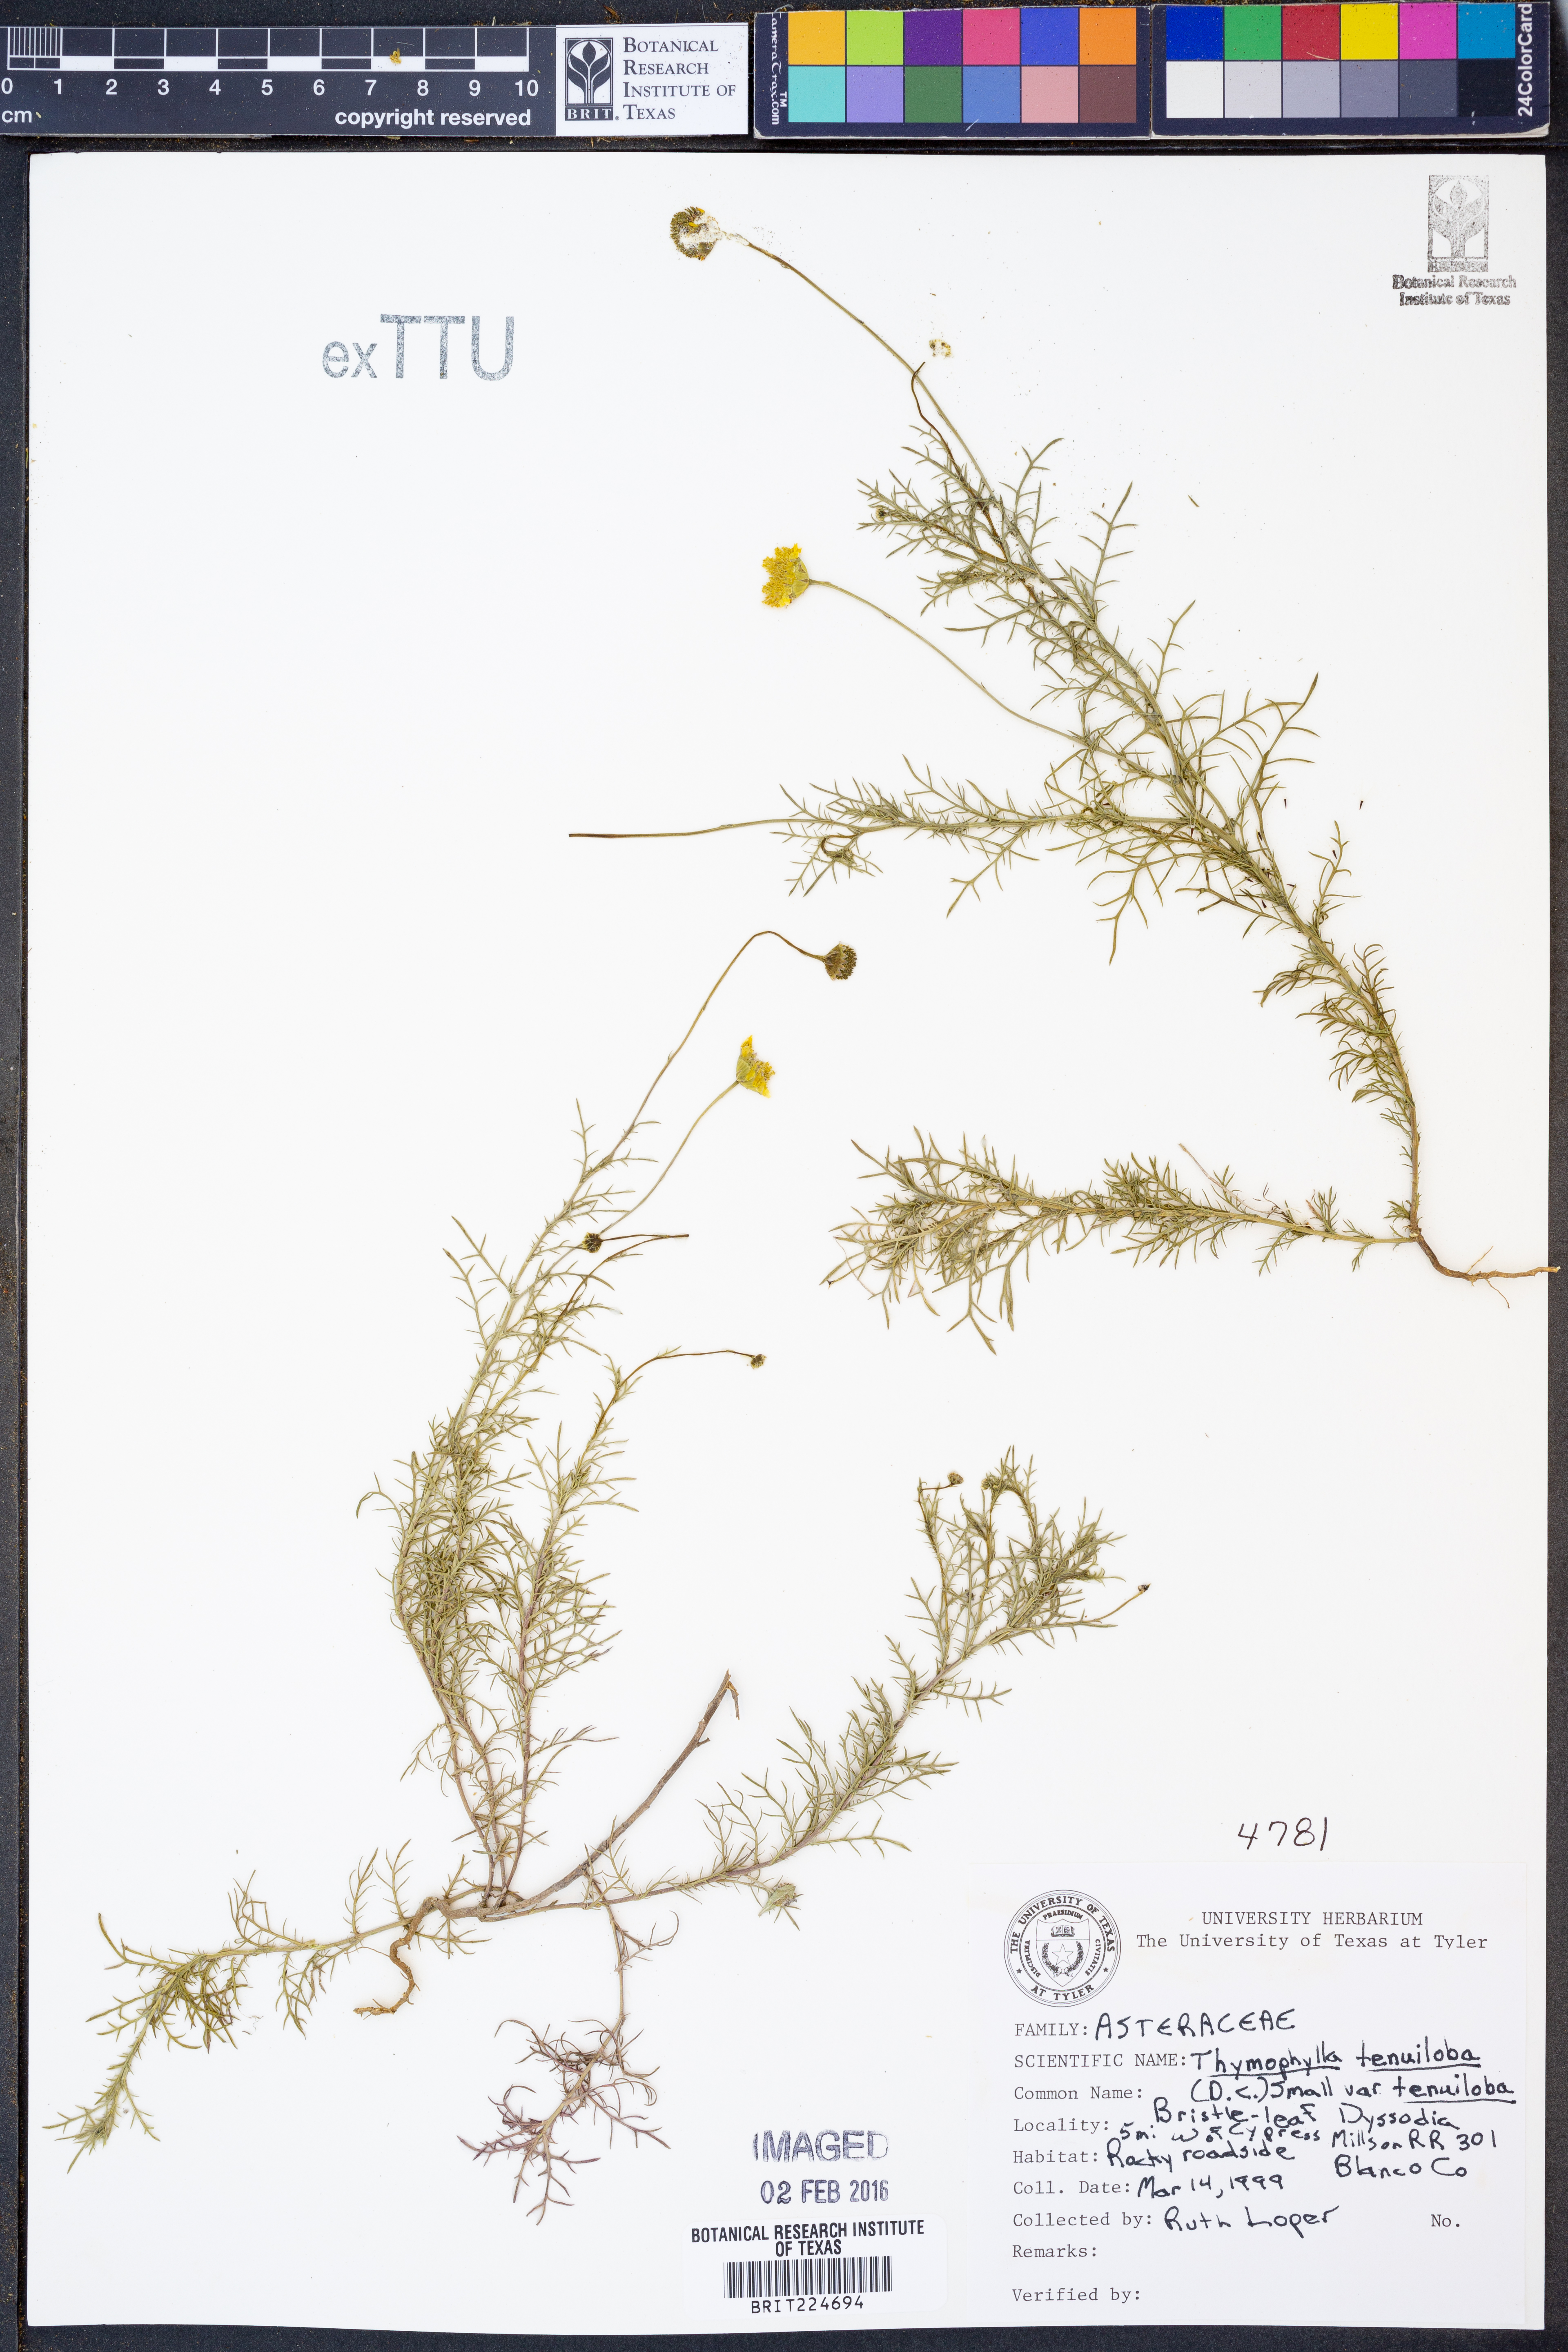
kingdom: Plantae
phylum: Tracheophyta
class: Magnoliopsida
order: Asterales
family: Asteraceae
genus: Thymophylla
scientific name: Thymophylla tenuiloba
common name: Dahlberg's daisy
